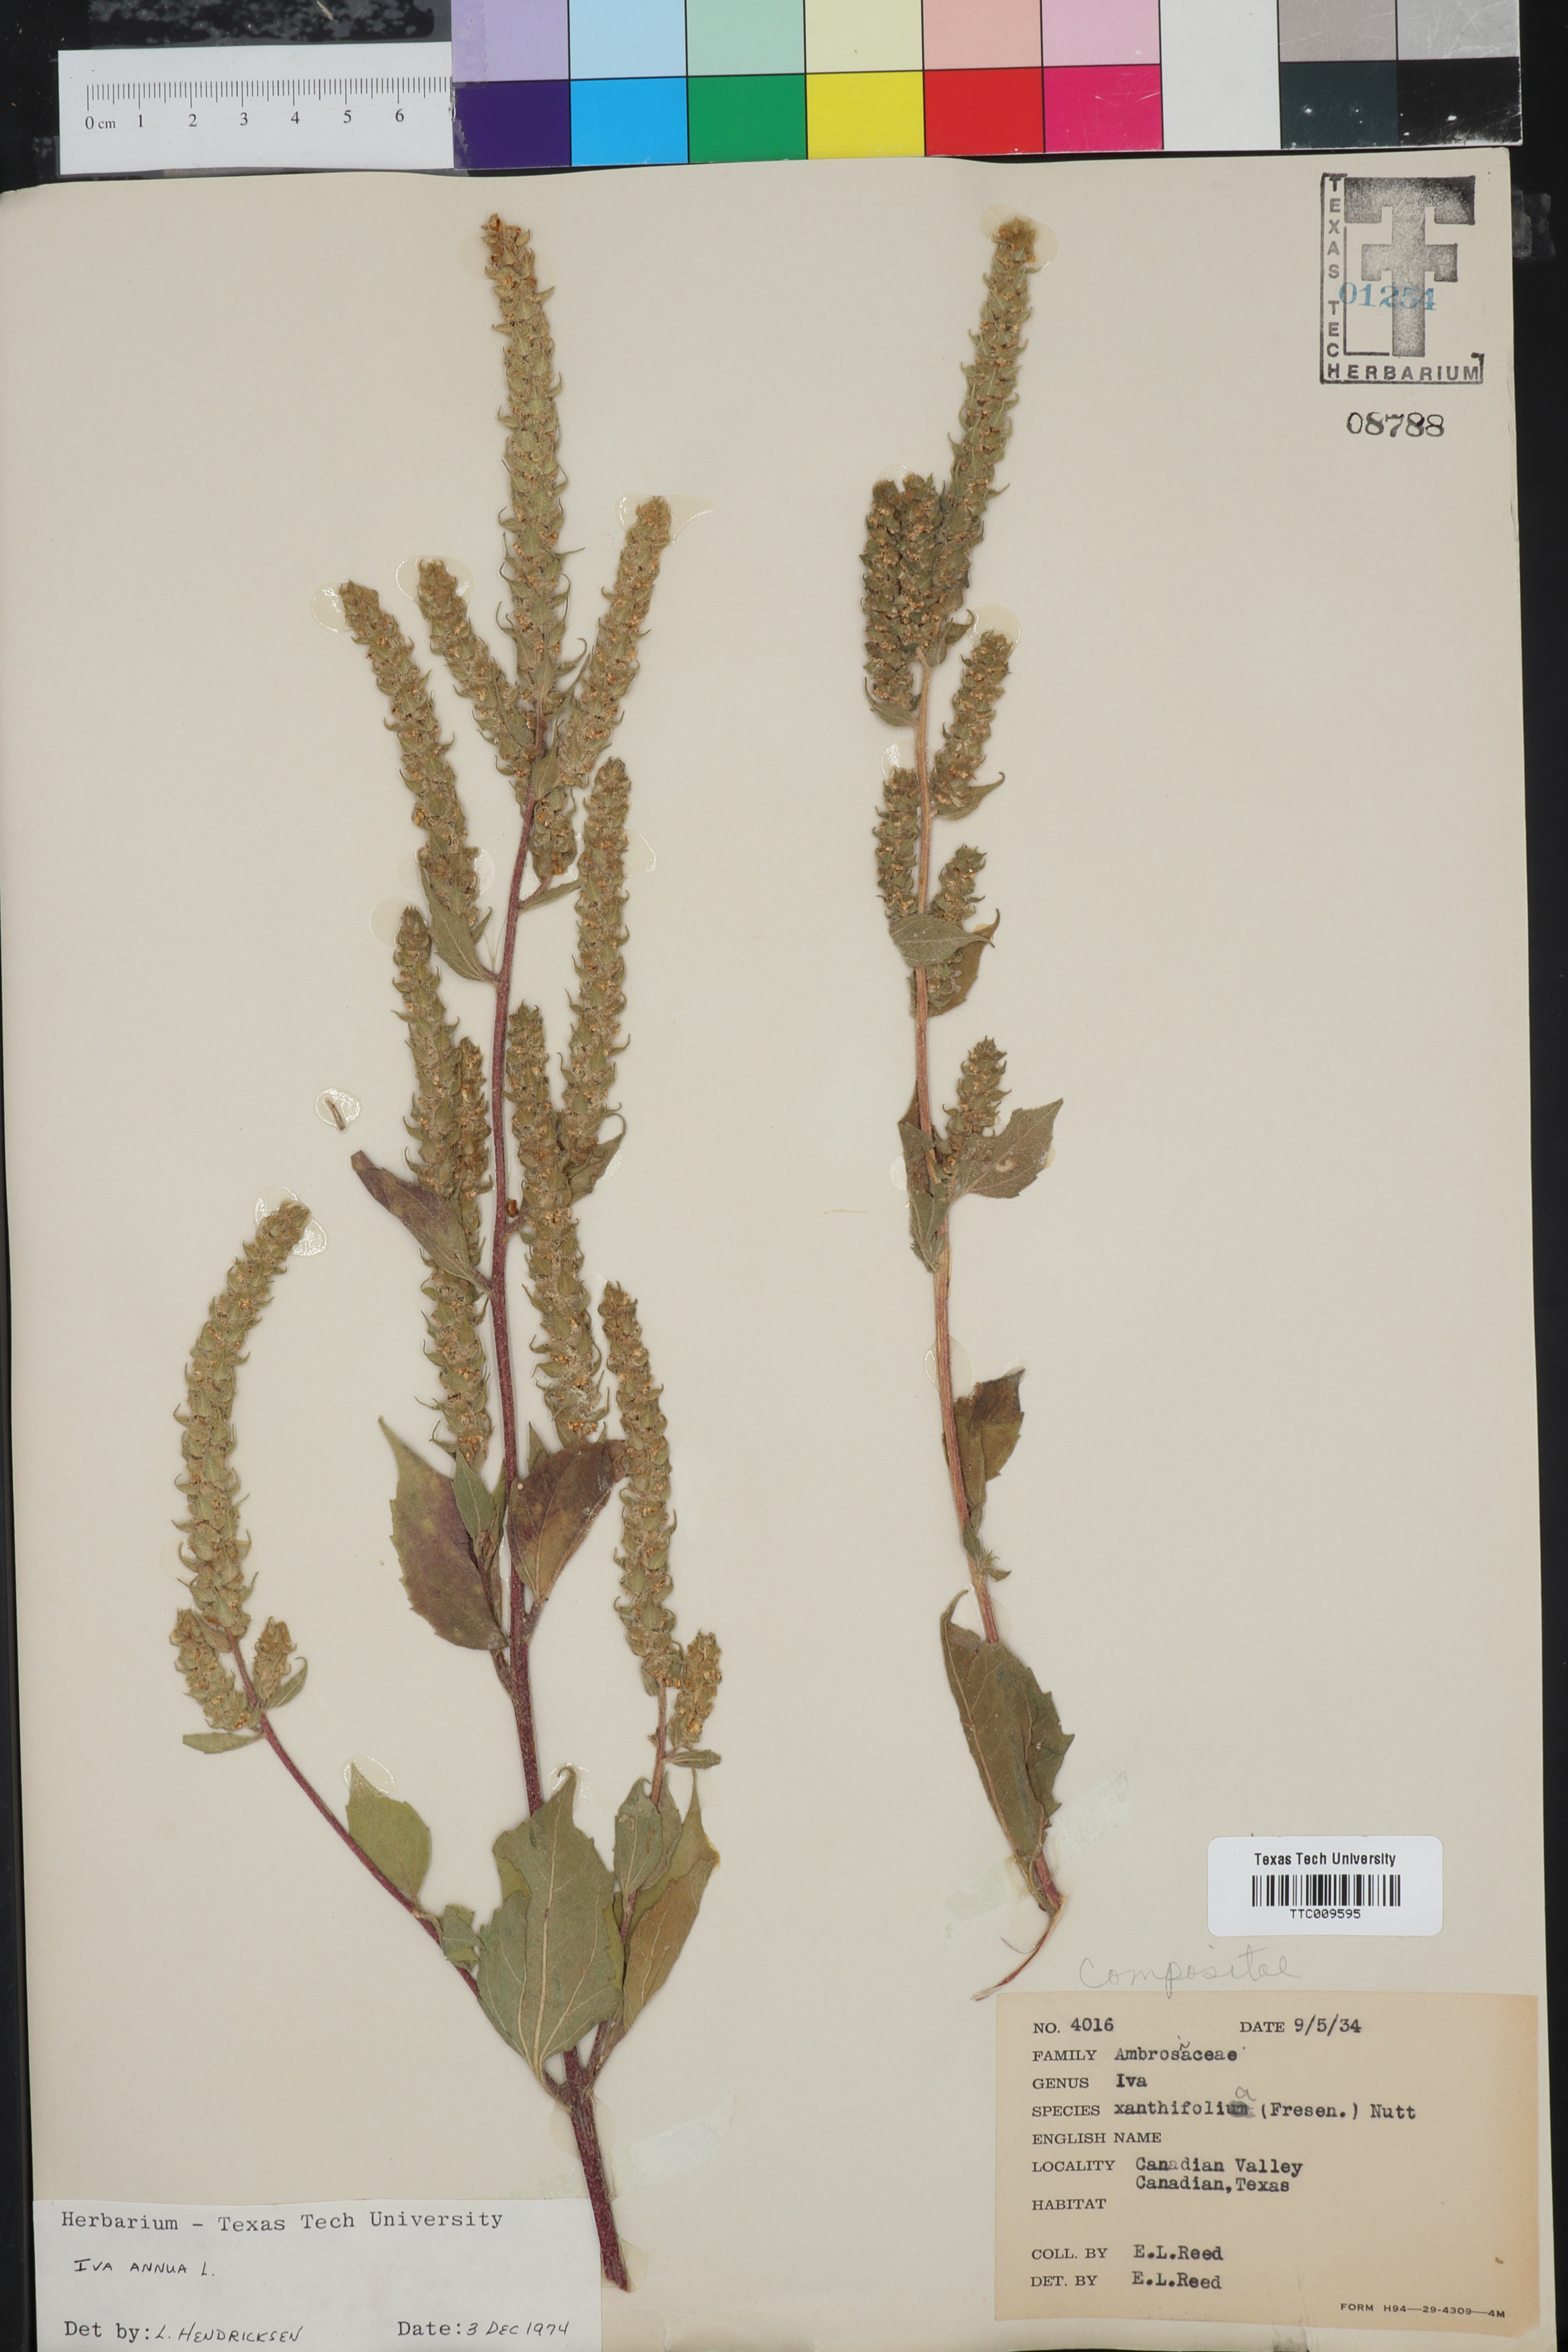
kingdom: Plantae
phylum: Tracheophyta
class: Magnoliopsida
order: Asterales
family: Asteraceae
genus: Iva
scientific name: Iva annua
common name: Marsh-elder
